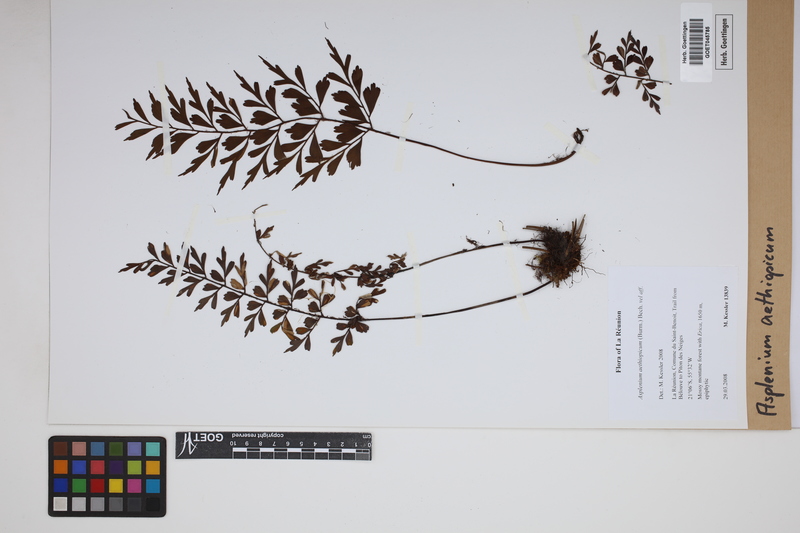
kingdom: Plantae
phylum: Tracheophyta
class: Polypodiopsida
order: Polypodiales
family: Aspleniaceae
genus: Asplenium
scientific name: Asplenium aethiopicum
